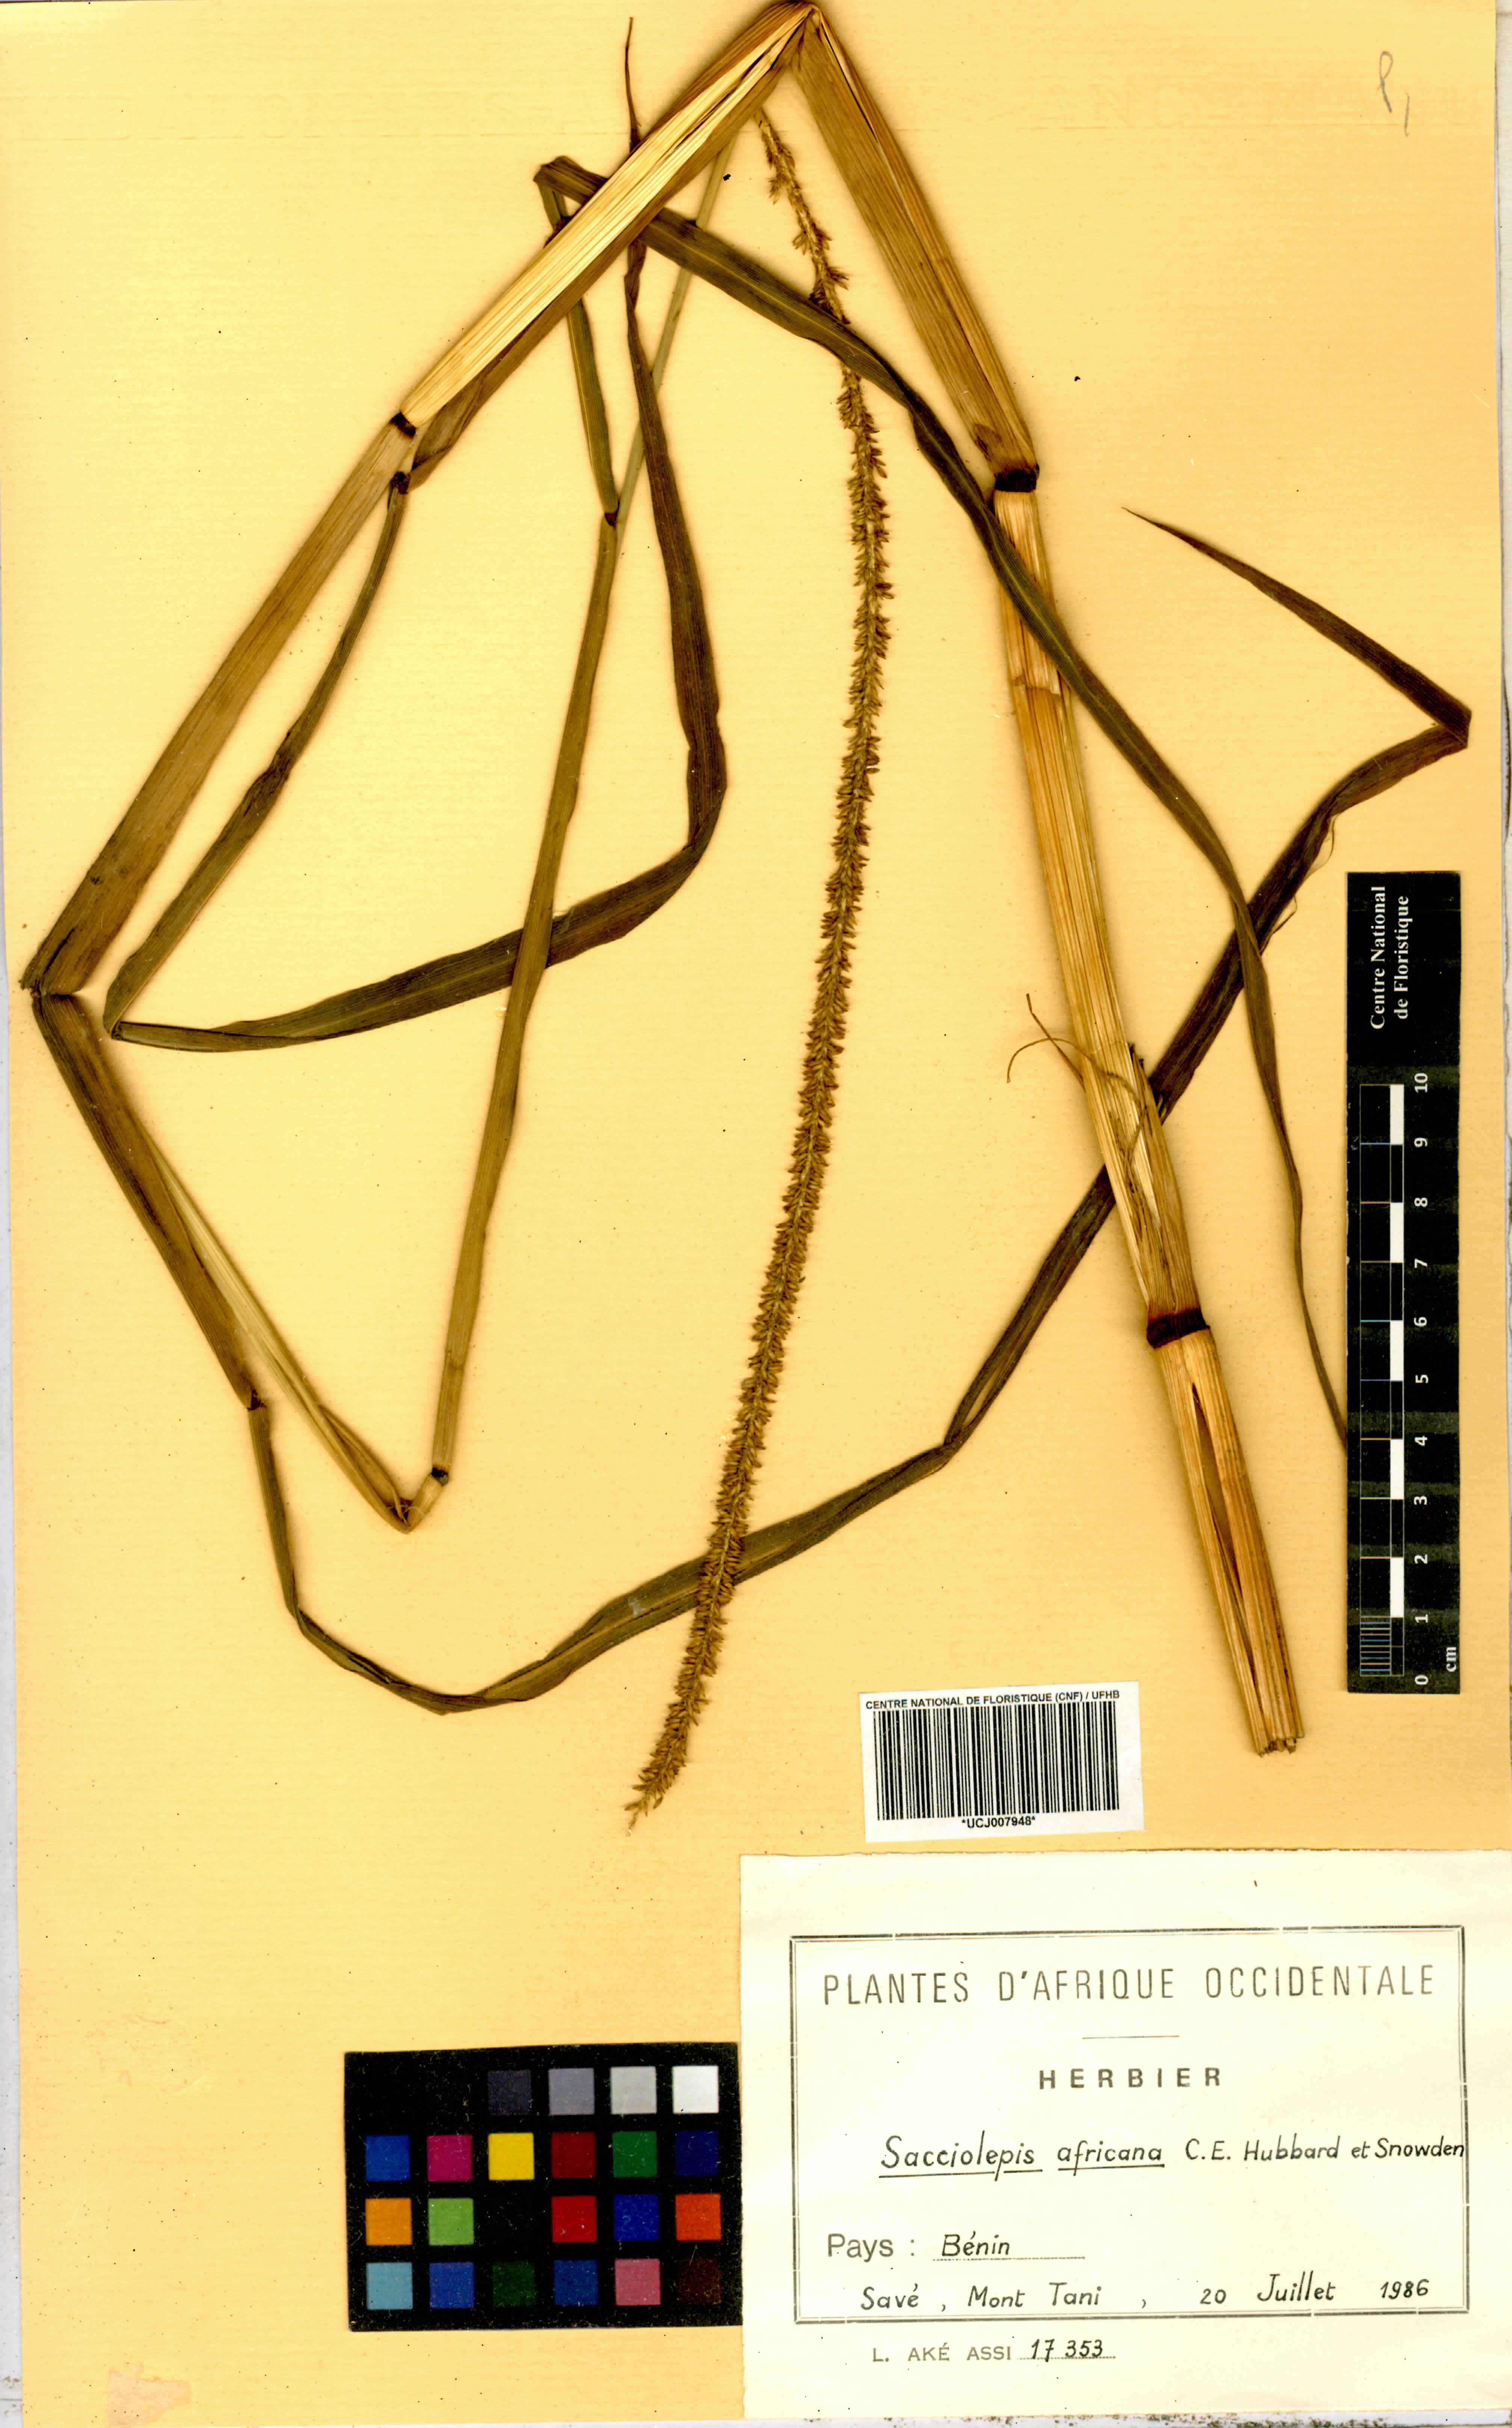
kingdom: Plantae
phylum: Tracheophyta
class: Liliopsida
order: Poales
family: Poaceae
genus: Sacciolepis
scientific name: Sacciolepis africana
